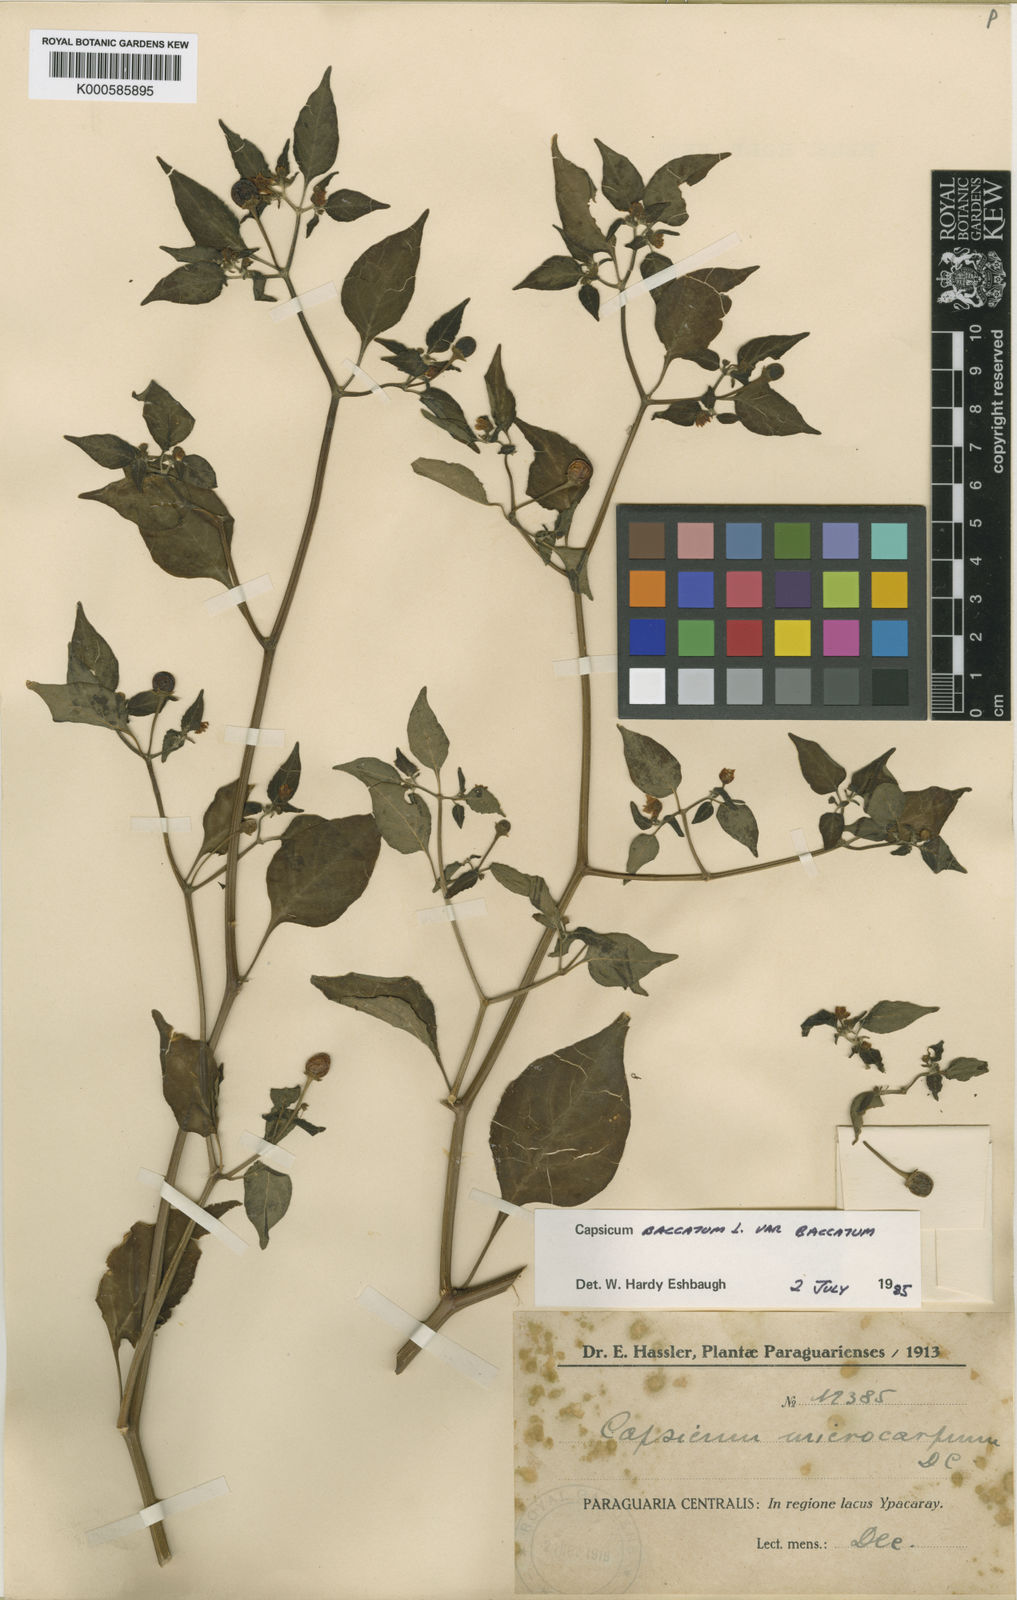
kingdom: Plantae
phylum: Tracheophyta
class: Magnoliopsida
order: Solanales
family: Solanaceae
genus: Capsicum
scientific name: Capsicum
